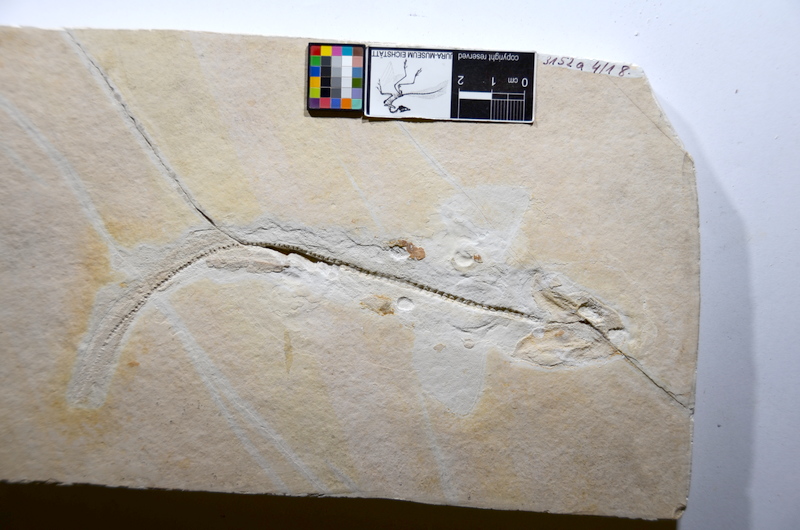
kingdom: Animalia
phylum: Chordata
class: Elasmobranchii
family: Palaeospinacidae
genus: Synechodus
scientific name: Synechodus ungeri
